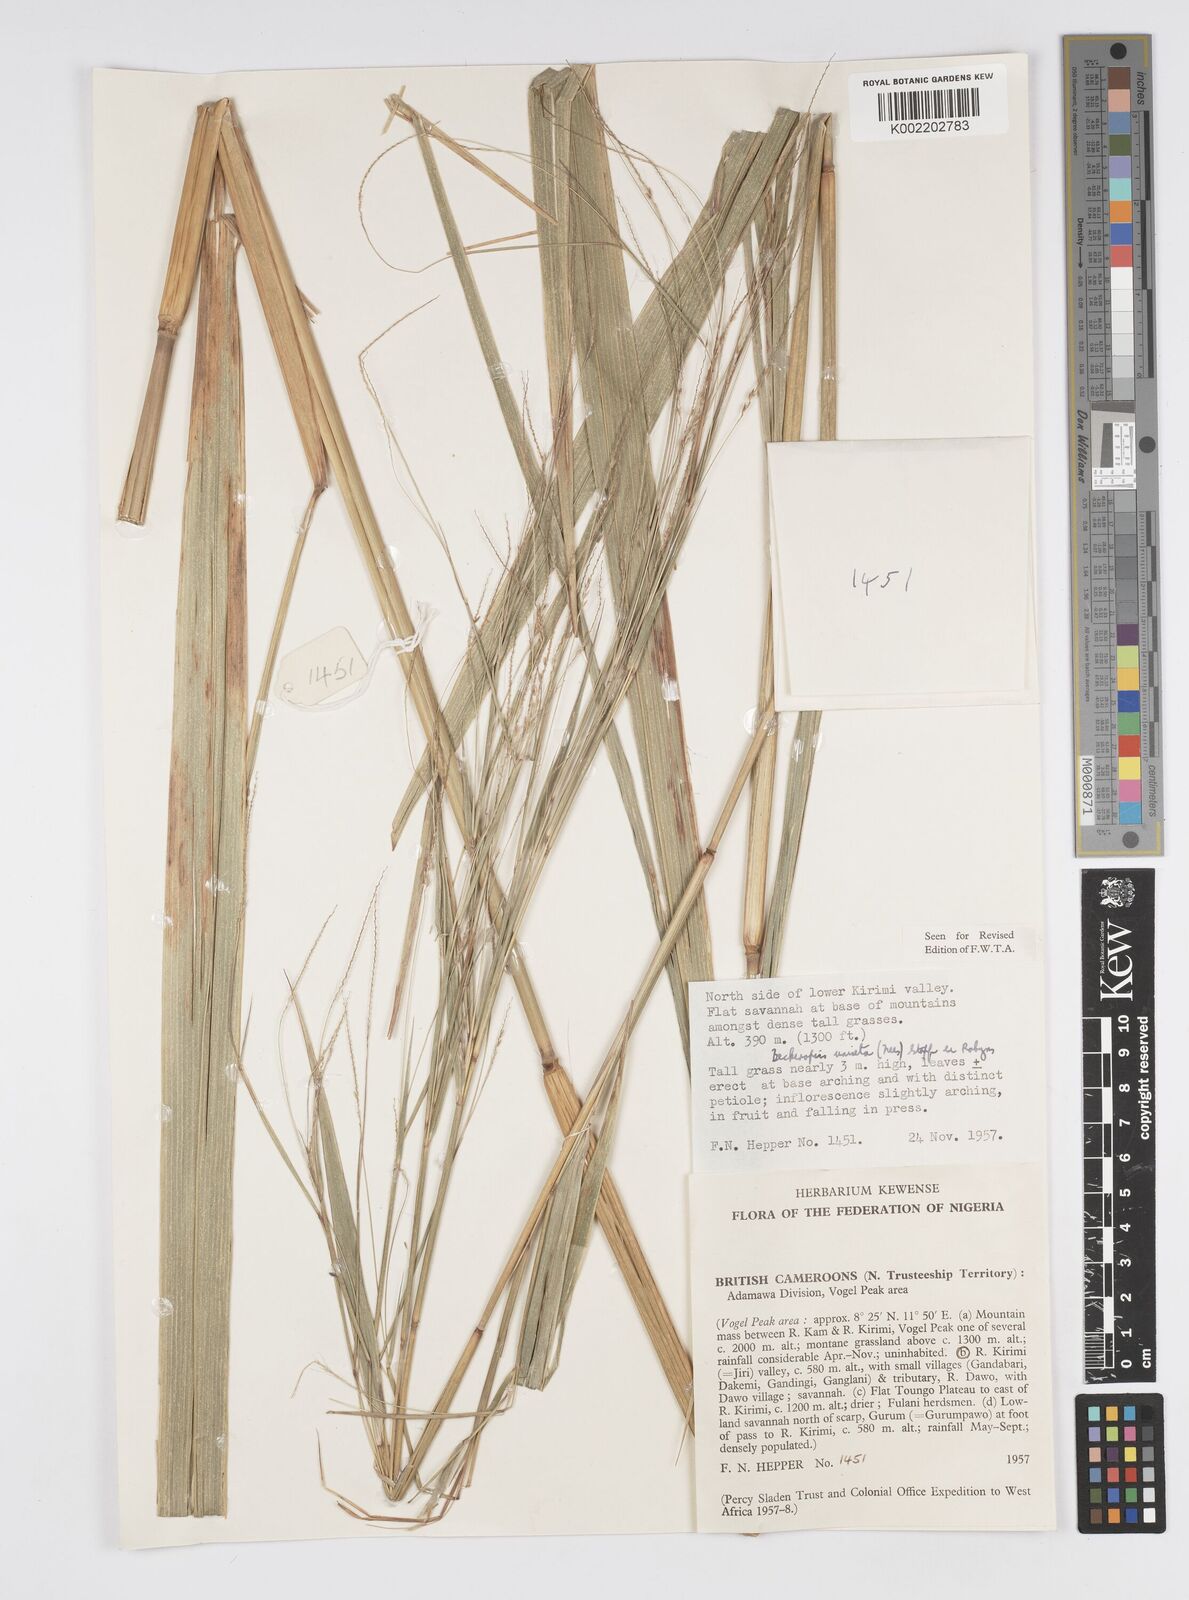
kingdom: Plantae
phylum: Tracheophyta
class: Liliopsida
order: Poales
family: Poaceae
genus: Cenchrus
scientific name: Cenchrus unisetus
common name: Natal grass
